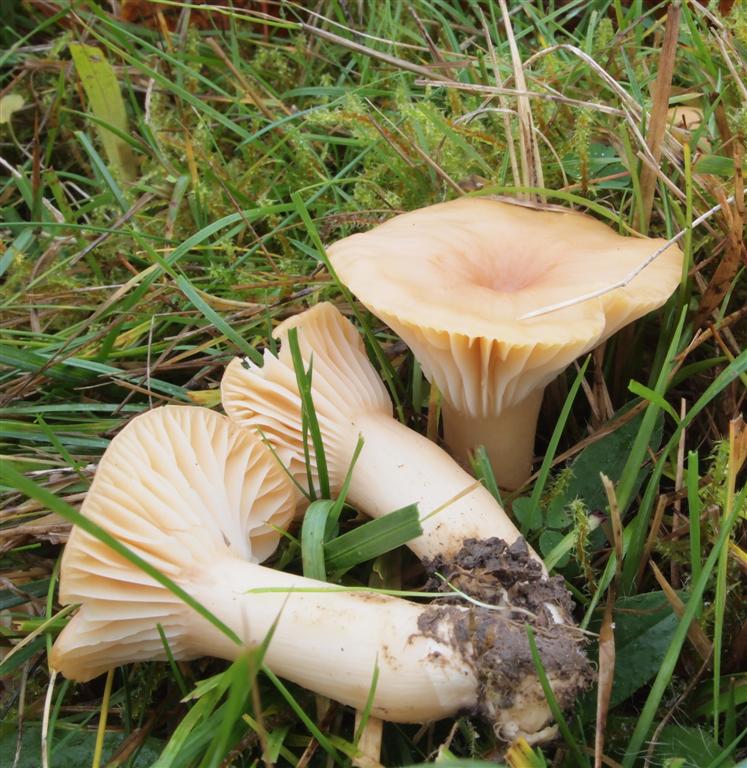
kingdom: Fungi
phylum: Basidiomycota
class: Agaricomycetes
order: Agaricales
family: Hygrophoraceae
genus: Cuphophyllus
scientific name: Cuphophyllus pratensis
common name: eng-vokshat
